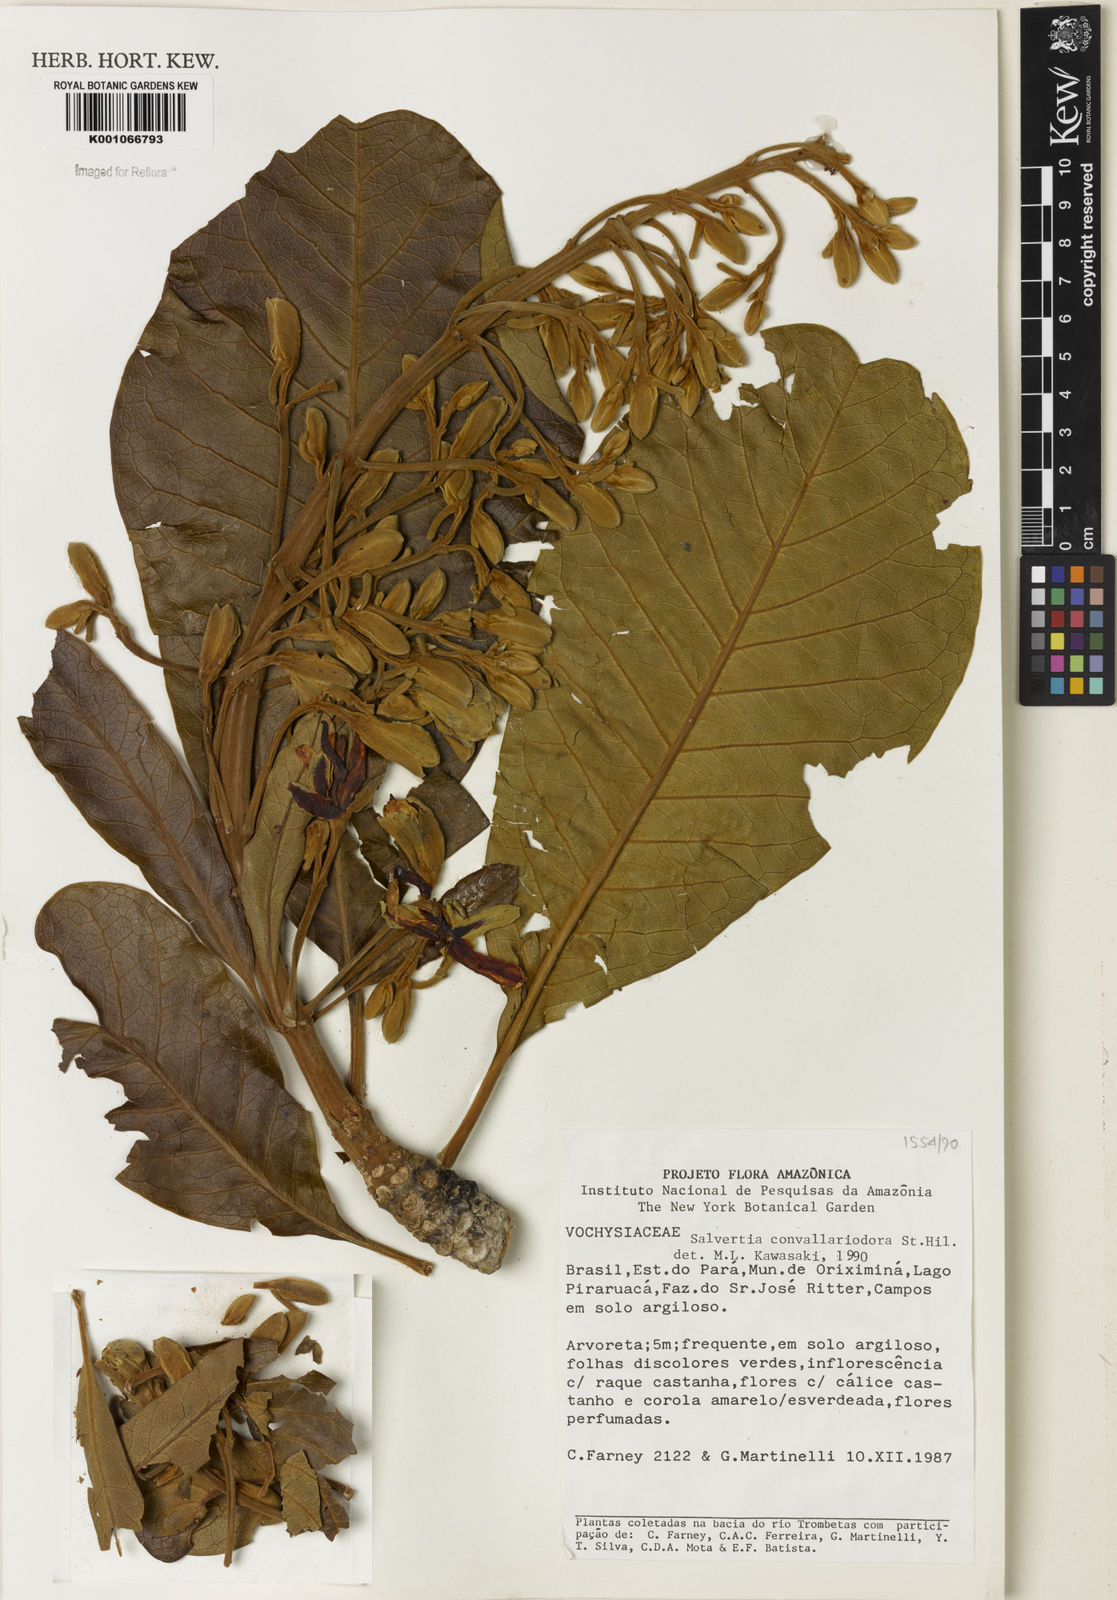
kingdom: Plantae
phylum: Tracheophyta
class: Magnoliopsida
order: Myrtales
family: Vochysiaceae
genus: Salvertia
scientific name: Salvertia convallariodora
